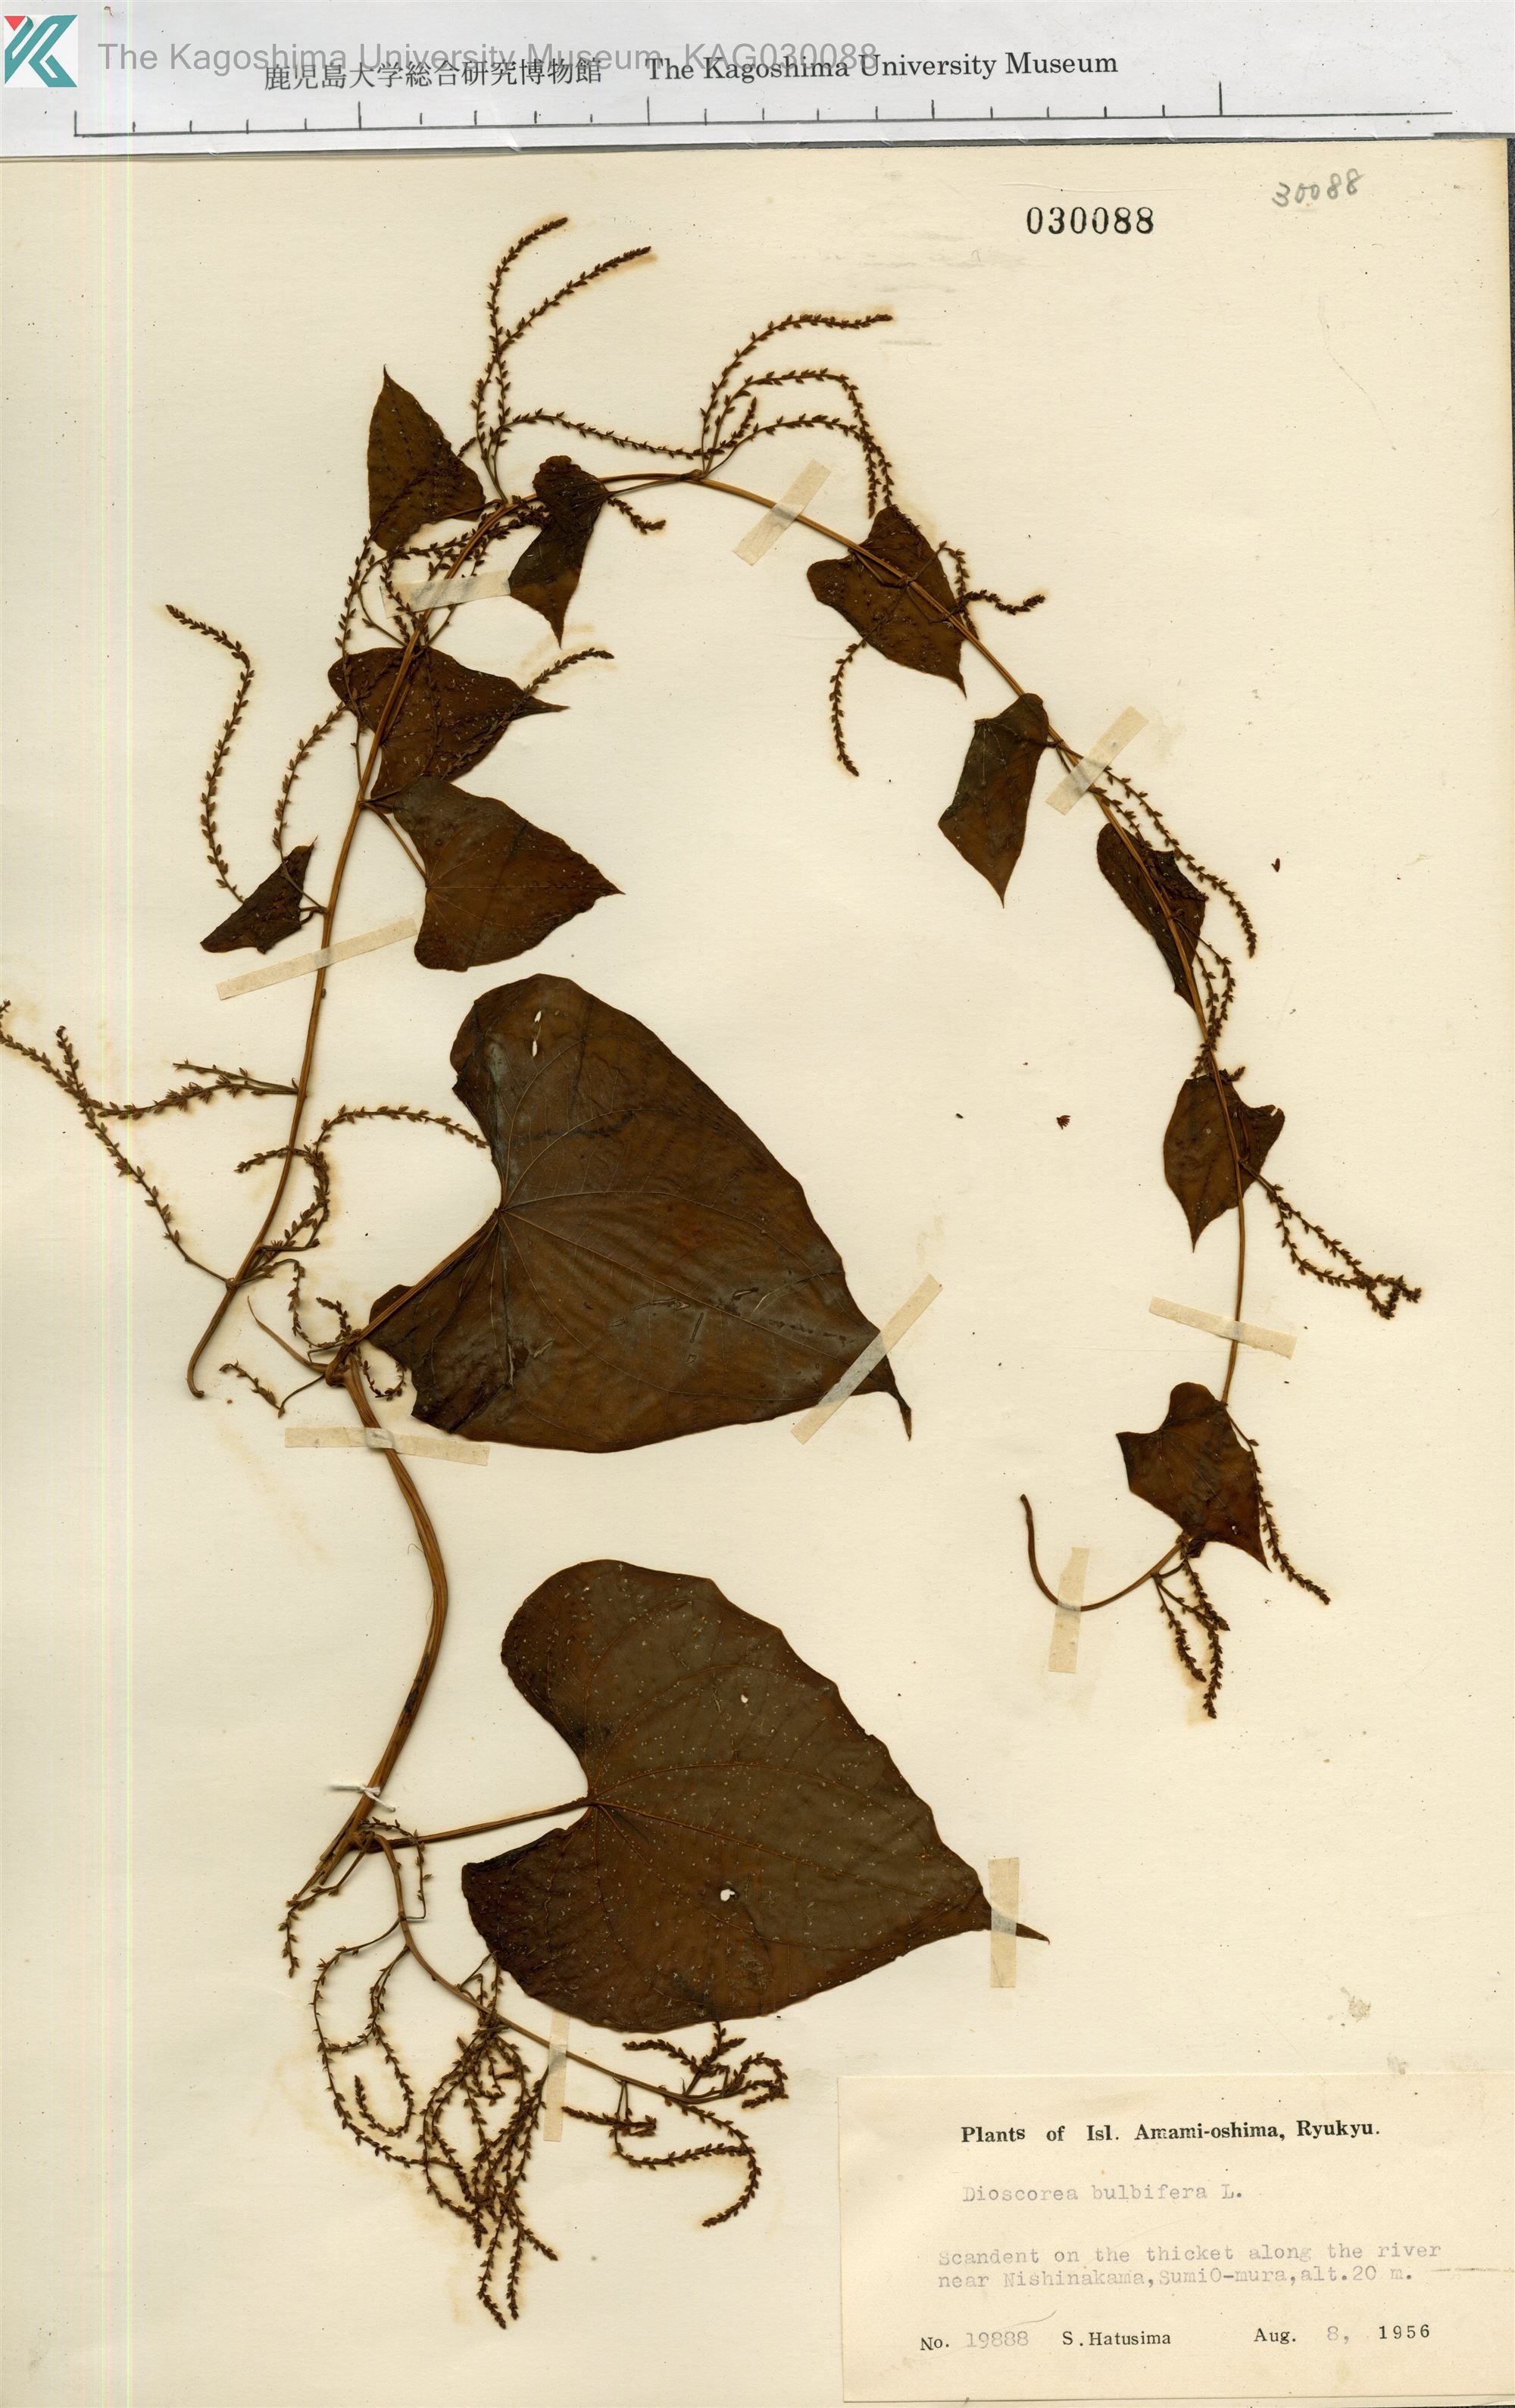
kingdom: Plantae
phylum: Tracheophyta
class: Liliopsida
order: Dioscoreales
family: Dioscoreaceae
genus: Dioscorea
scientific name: Dioscorea bulbifera
